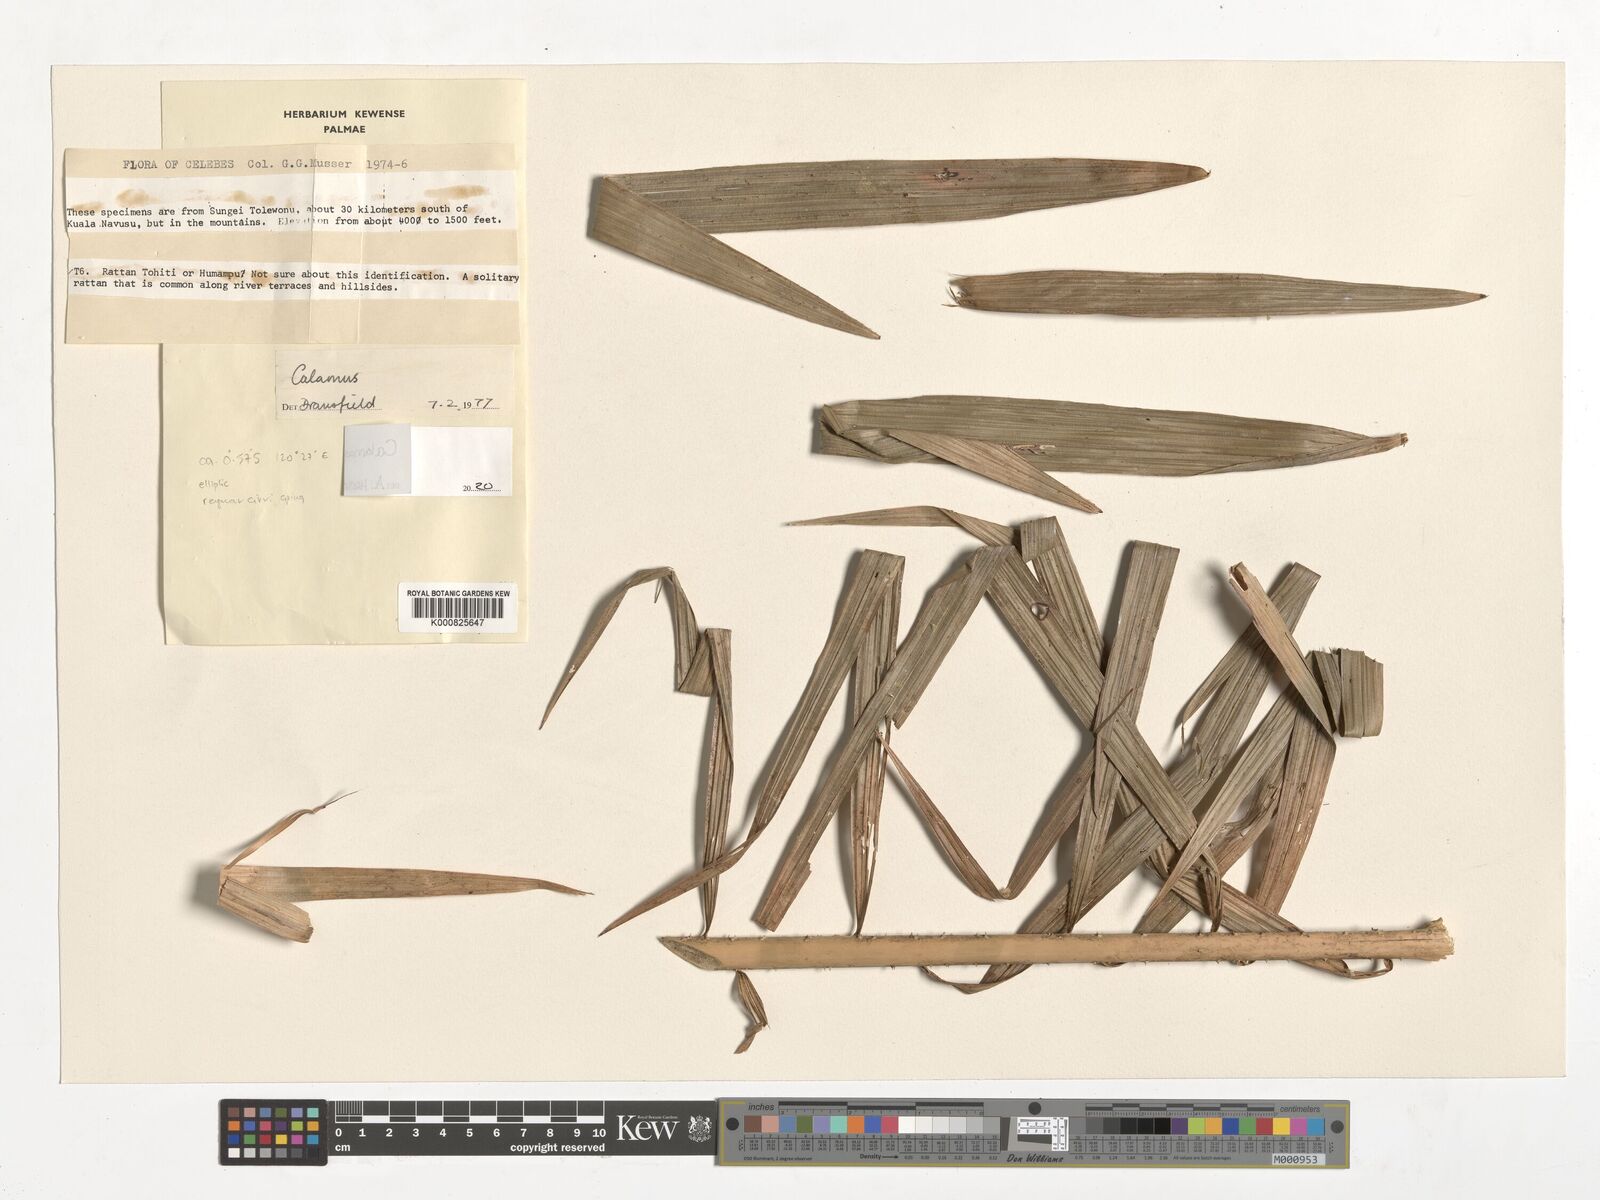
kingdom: Plantae
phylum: Tracheophyta
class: Liliopsida
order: Arecales
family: Arecaceae
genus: Calamus
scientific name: Calamus
